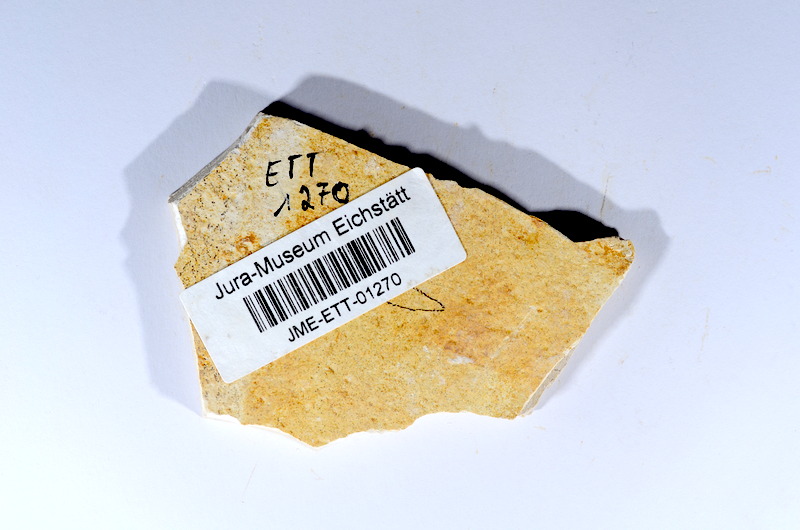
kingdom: Animalia
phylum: Chordata
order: Salmoniformes
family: Orthogonikleithridae
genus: Orthogonikleithrus
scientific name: Orthogonikleithrus hoelli
